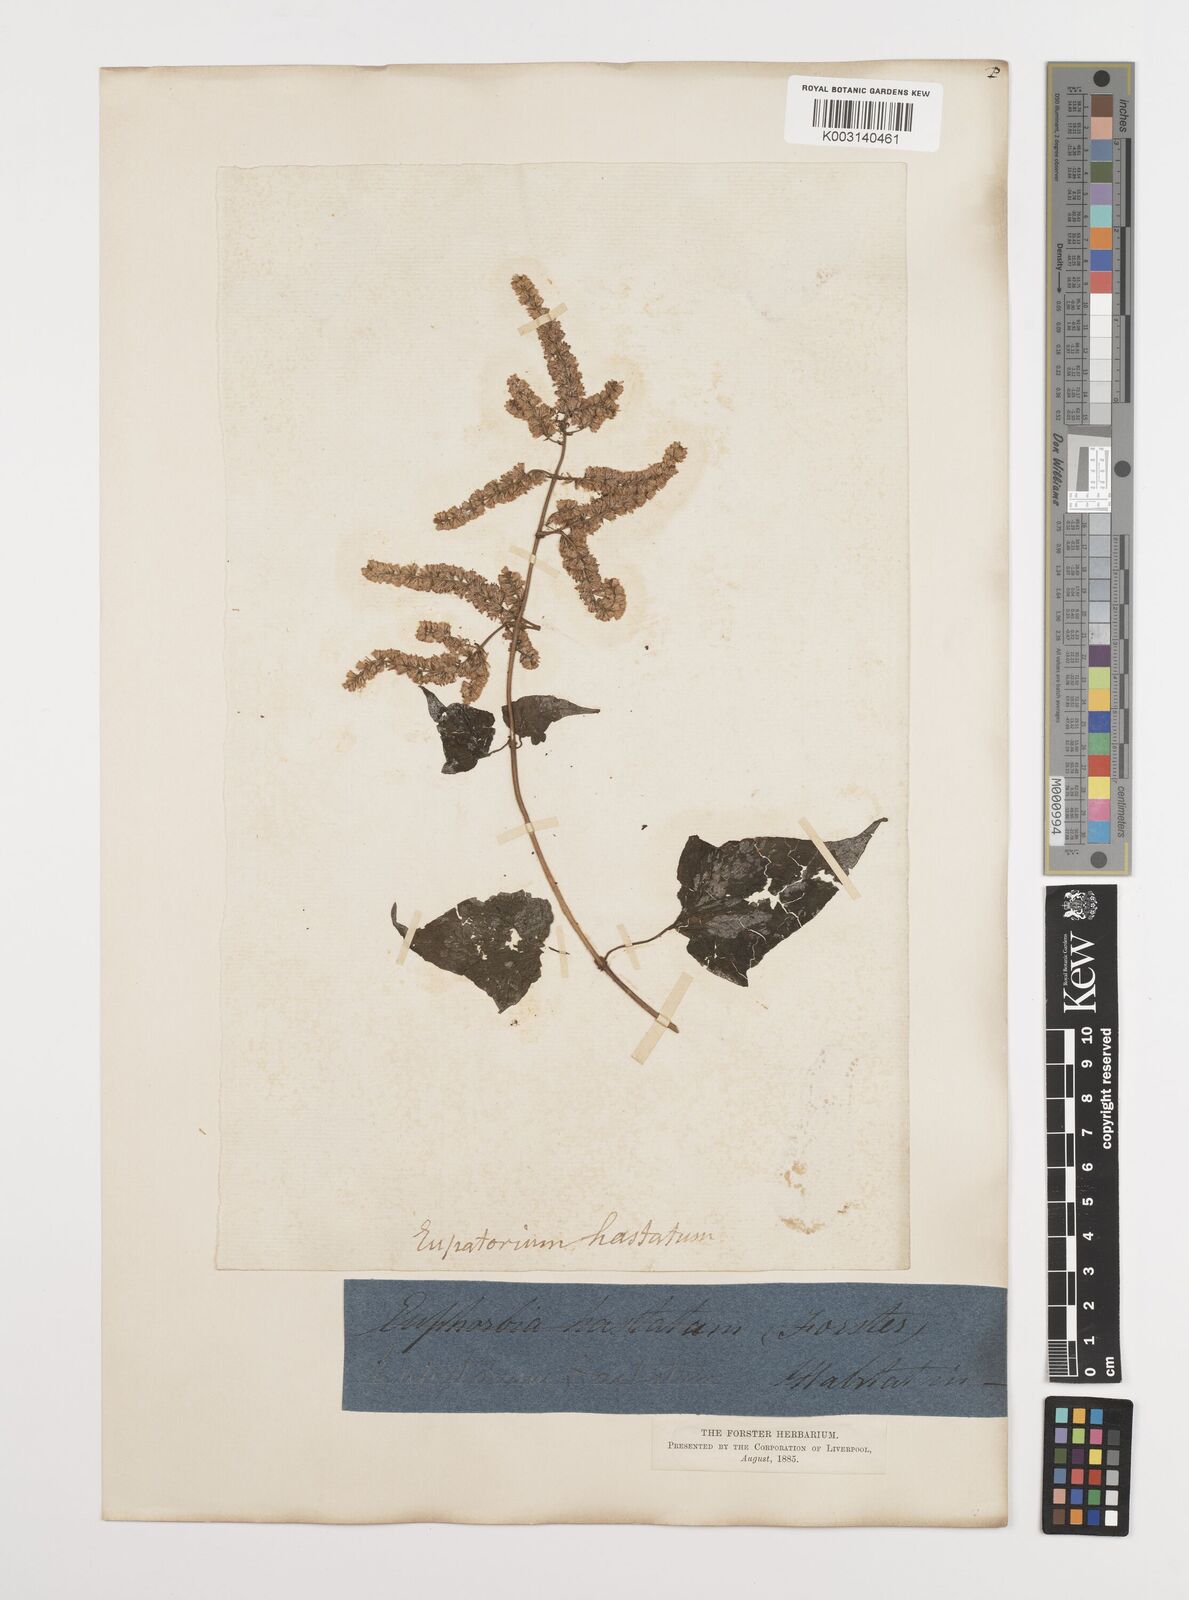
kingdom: Plantae
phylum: Tracheophyta
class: Magnoliopsida
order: Asterales
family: Asteraceae
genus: Mikania
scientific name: Mikania hastata
